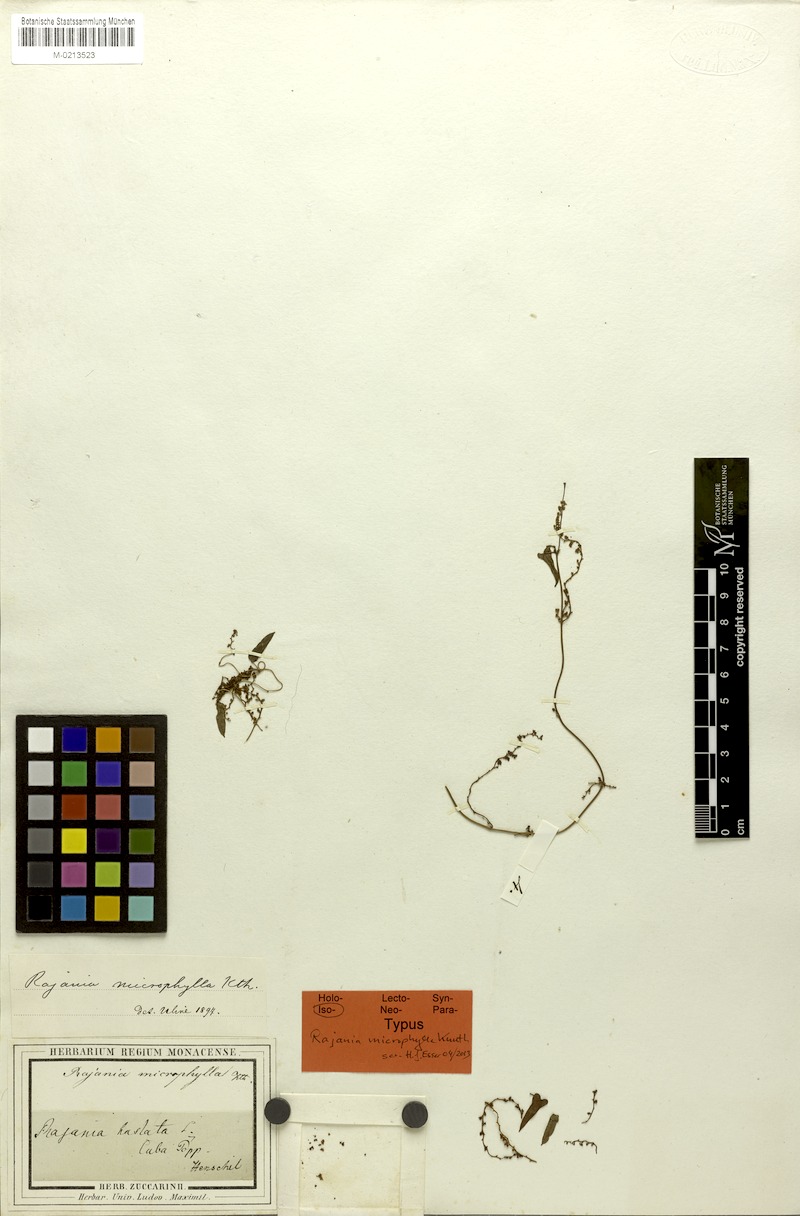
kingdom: Plantae
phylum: Tracheophyta
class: Liliopsida
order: Dioscoreales
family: Dioscoreaceae
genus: Dioscorea
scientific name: Dioscorea microphylla
